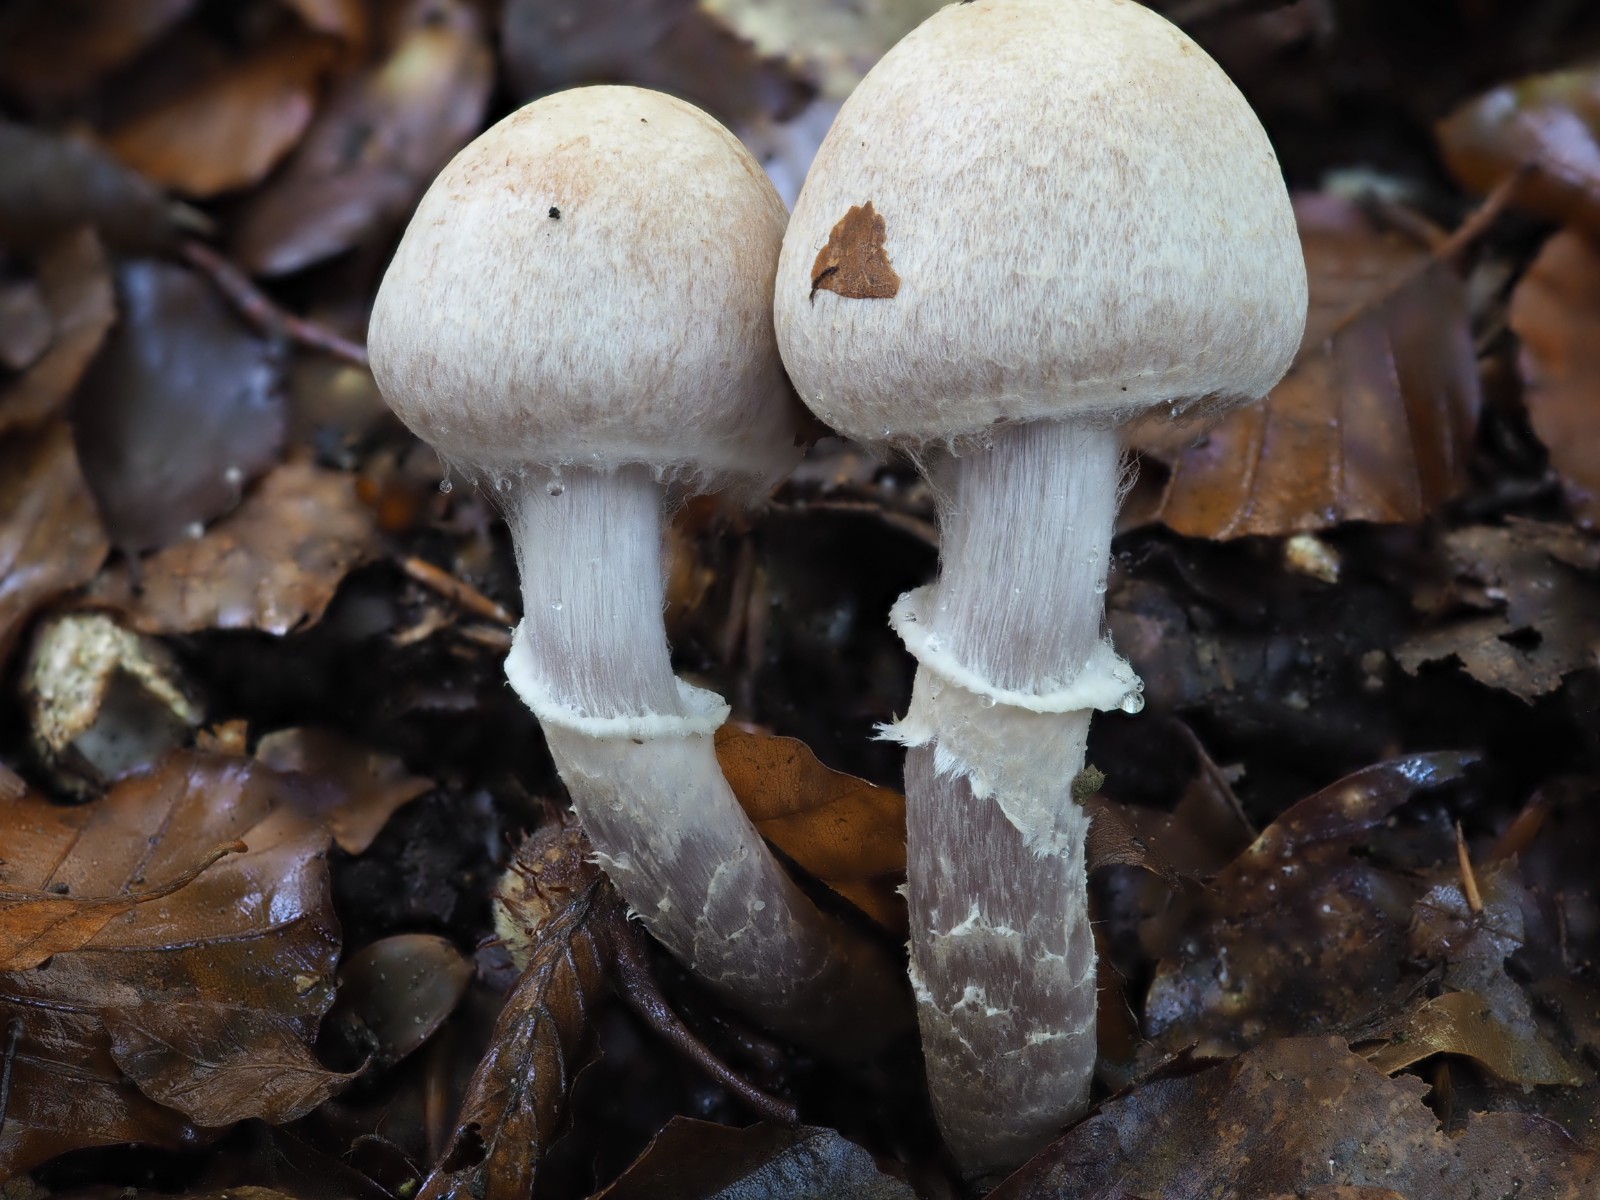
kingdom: Fungi
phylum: Basidiomycota
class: Agaricomycetes
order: Agaricales
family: Cortinariaceae
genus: Cortinarius
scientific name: Cortinarius torvus
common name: champignonagtig slørhat
